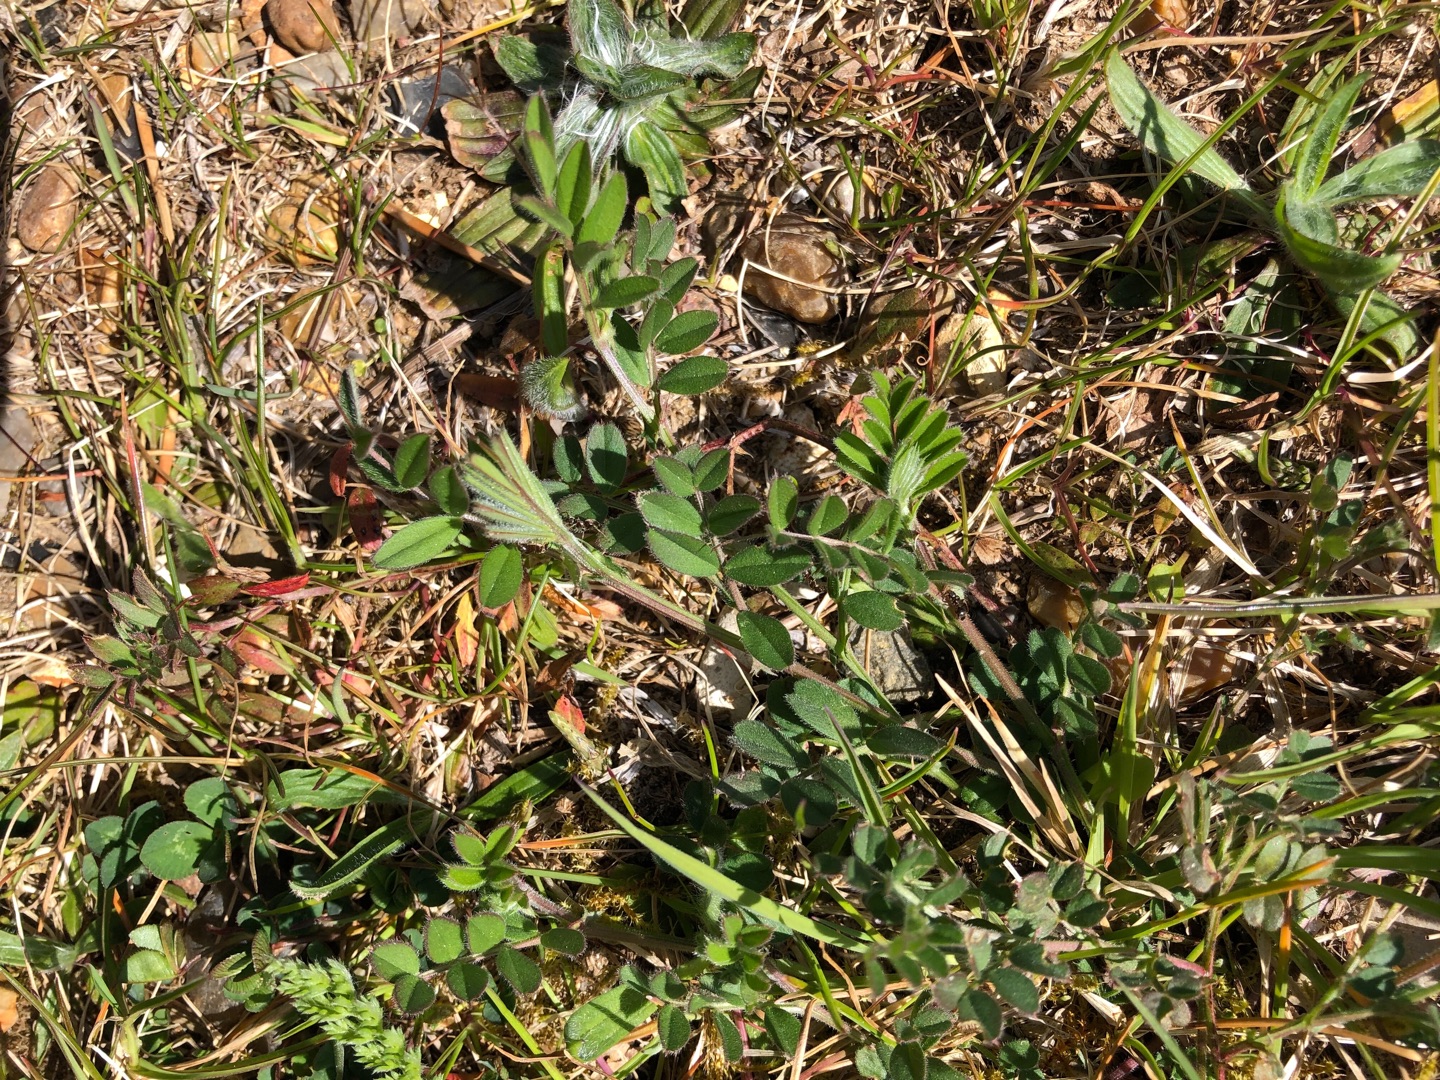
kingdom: Plantae
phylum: Tracheophyta
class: Magnoliopsida
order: Fabales
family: Fabaceae
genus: Vicia
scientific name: Vicia sativa
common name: Foder-vikke
